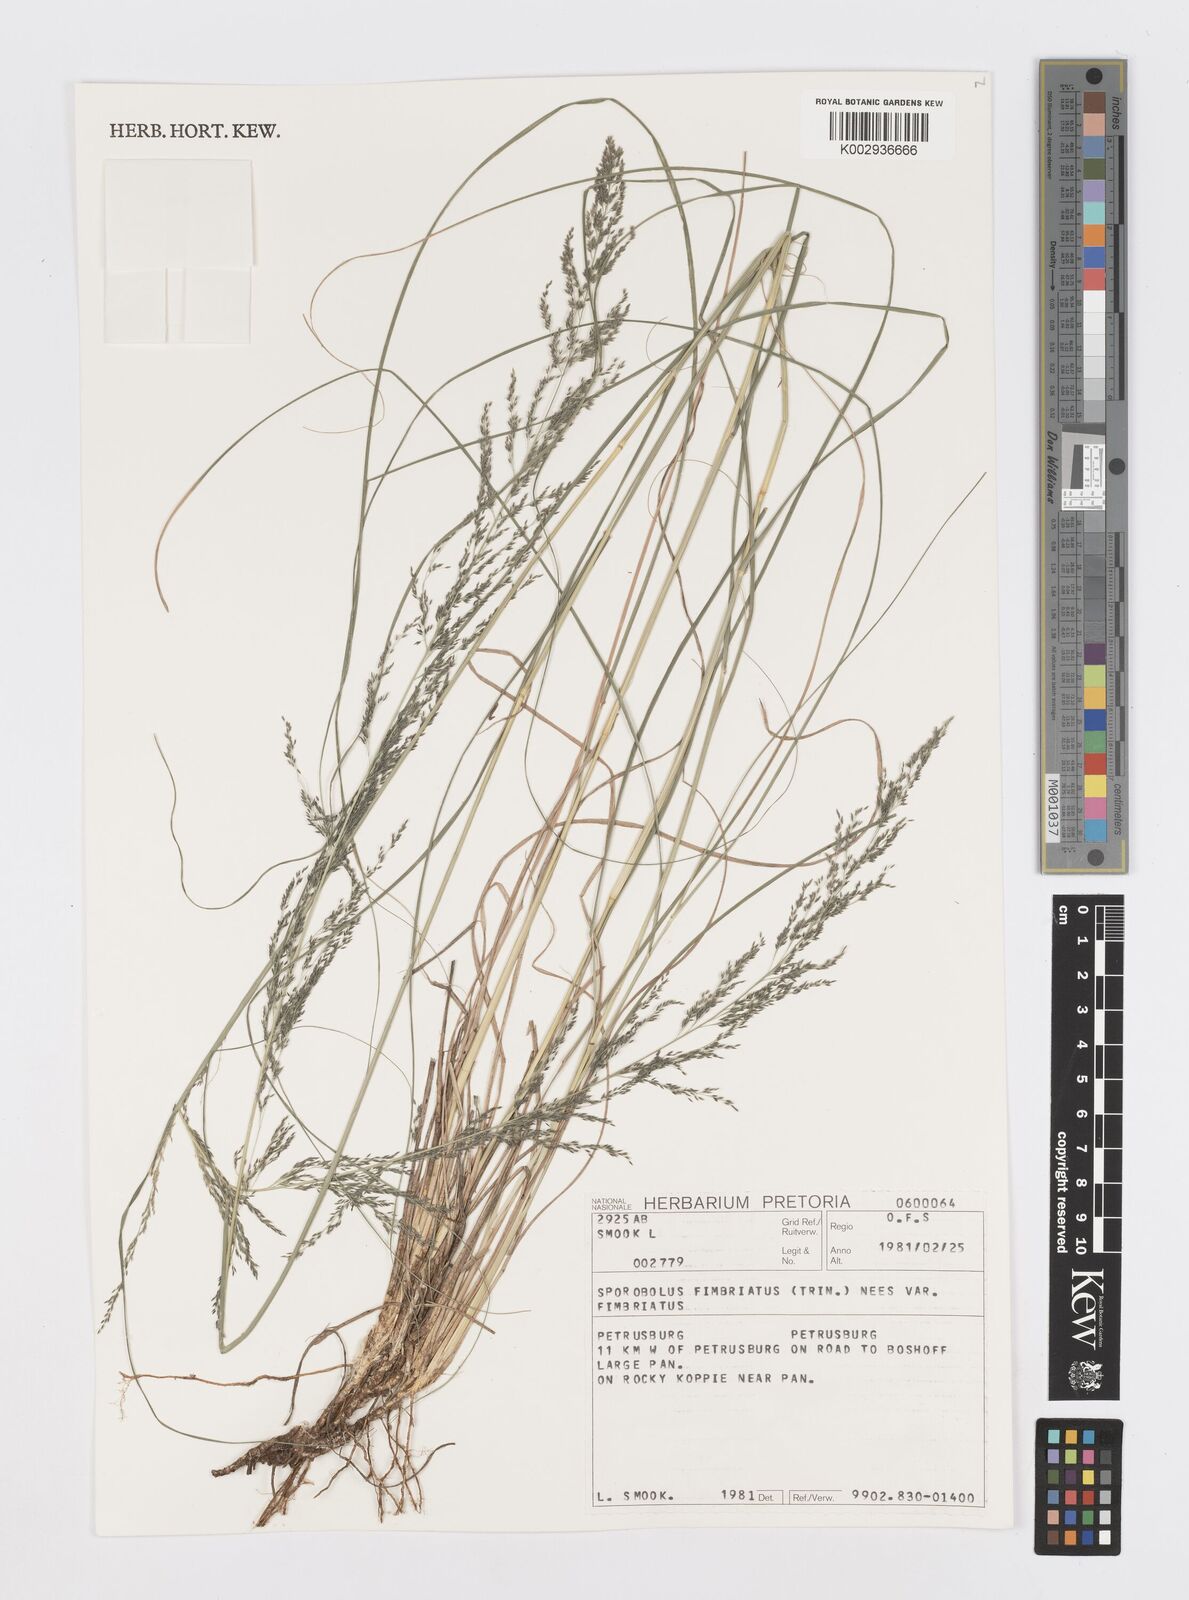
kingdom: Plantae
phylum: Tracheophyta
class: Liliopsida
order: Poales
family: Poaceae
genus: Sporobolus
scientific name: Sporobolus fimbriatus
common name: Fringed dropseed
